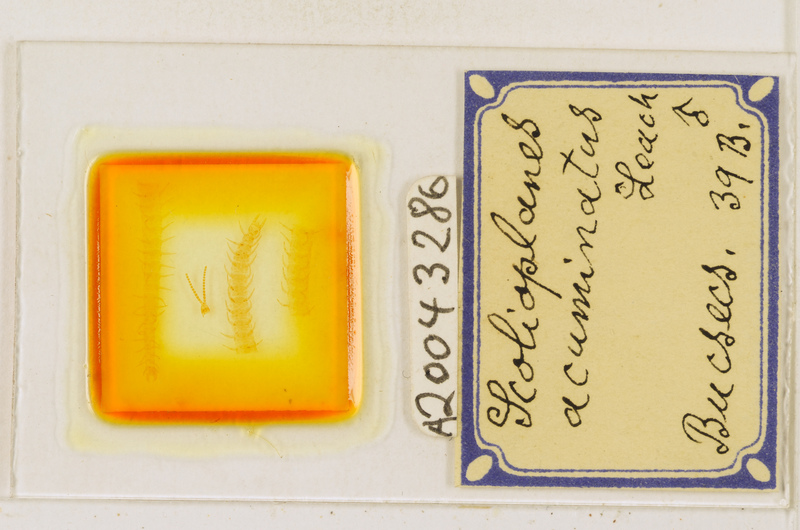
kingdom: Animalia
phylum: Arthropoda
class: Chilopoda
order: Geophilomorpha
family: Linotaeniidae
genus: Strigamia
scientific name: Strigamia acuminata
